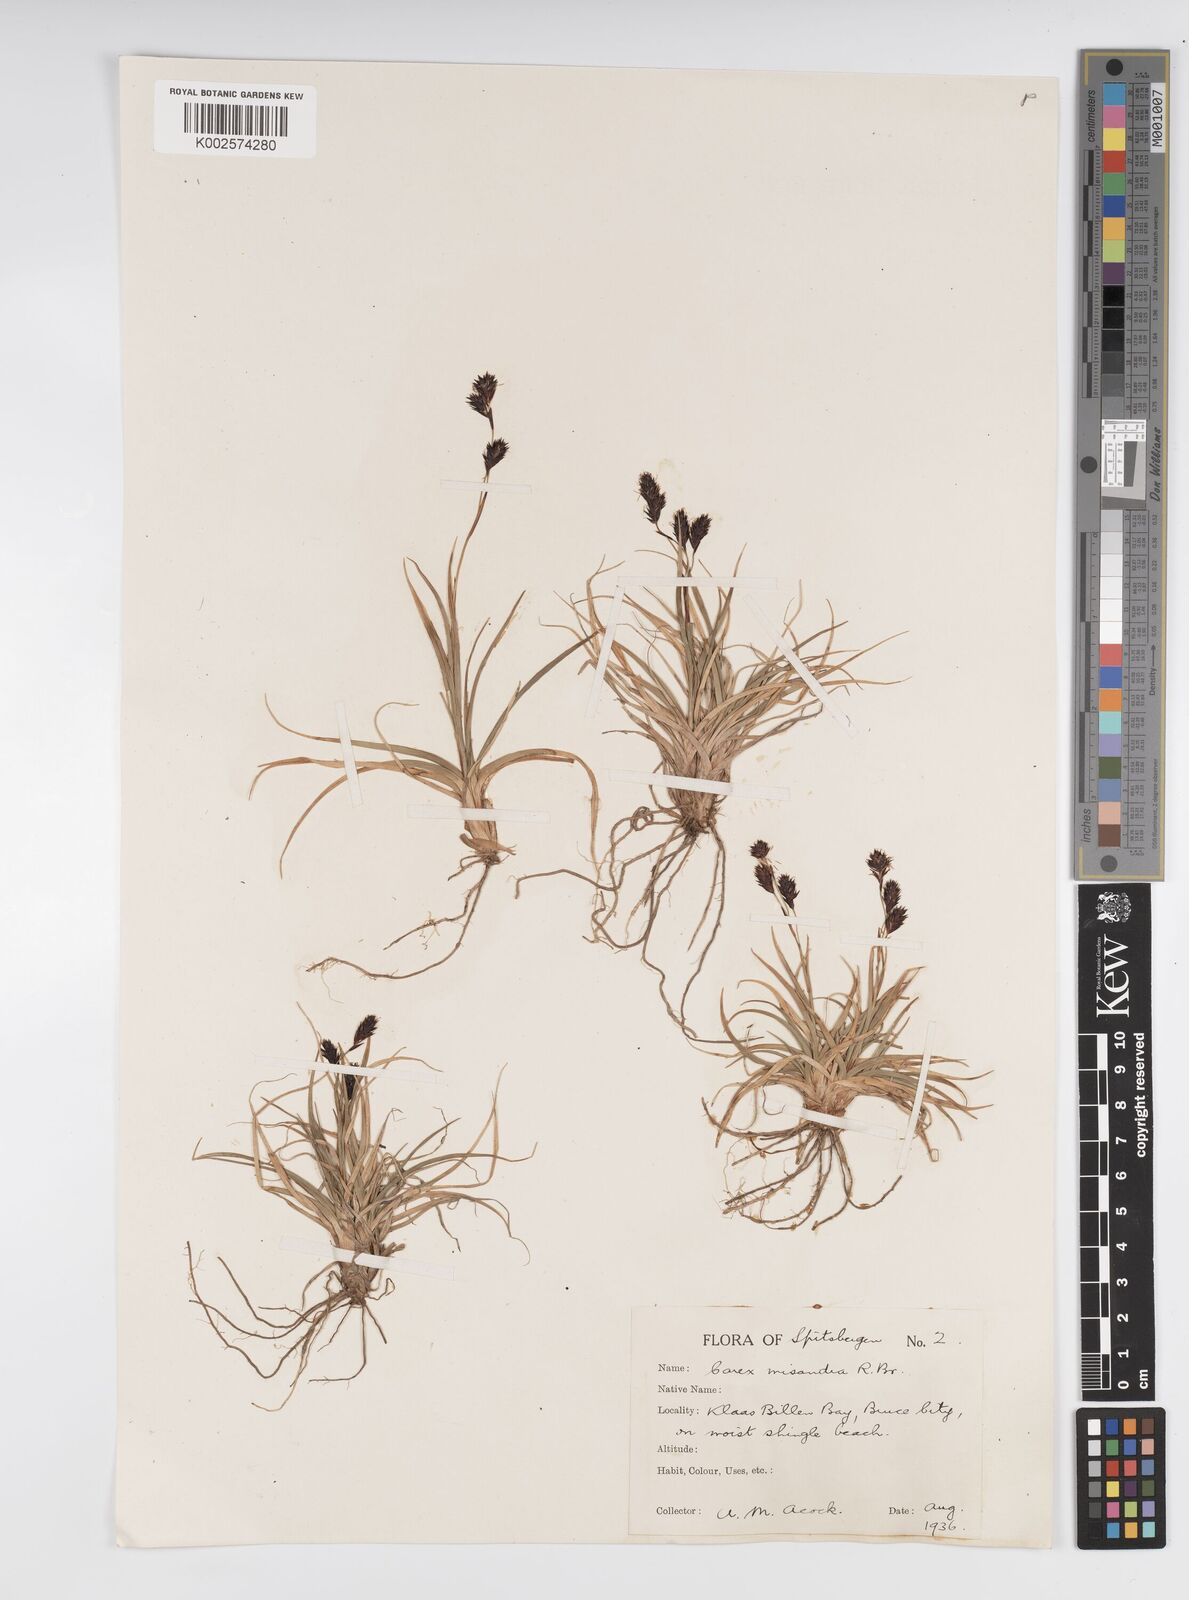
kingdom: Plantae
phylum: Tracheophyta
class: Liliopsida
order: Poales
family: Cyperaceae
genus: Carex
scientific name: Carex fuliginosa
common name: Few-flowered sedge
